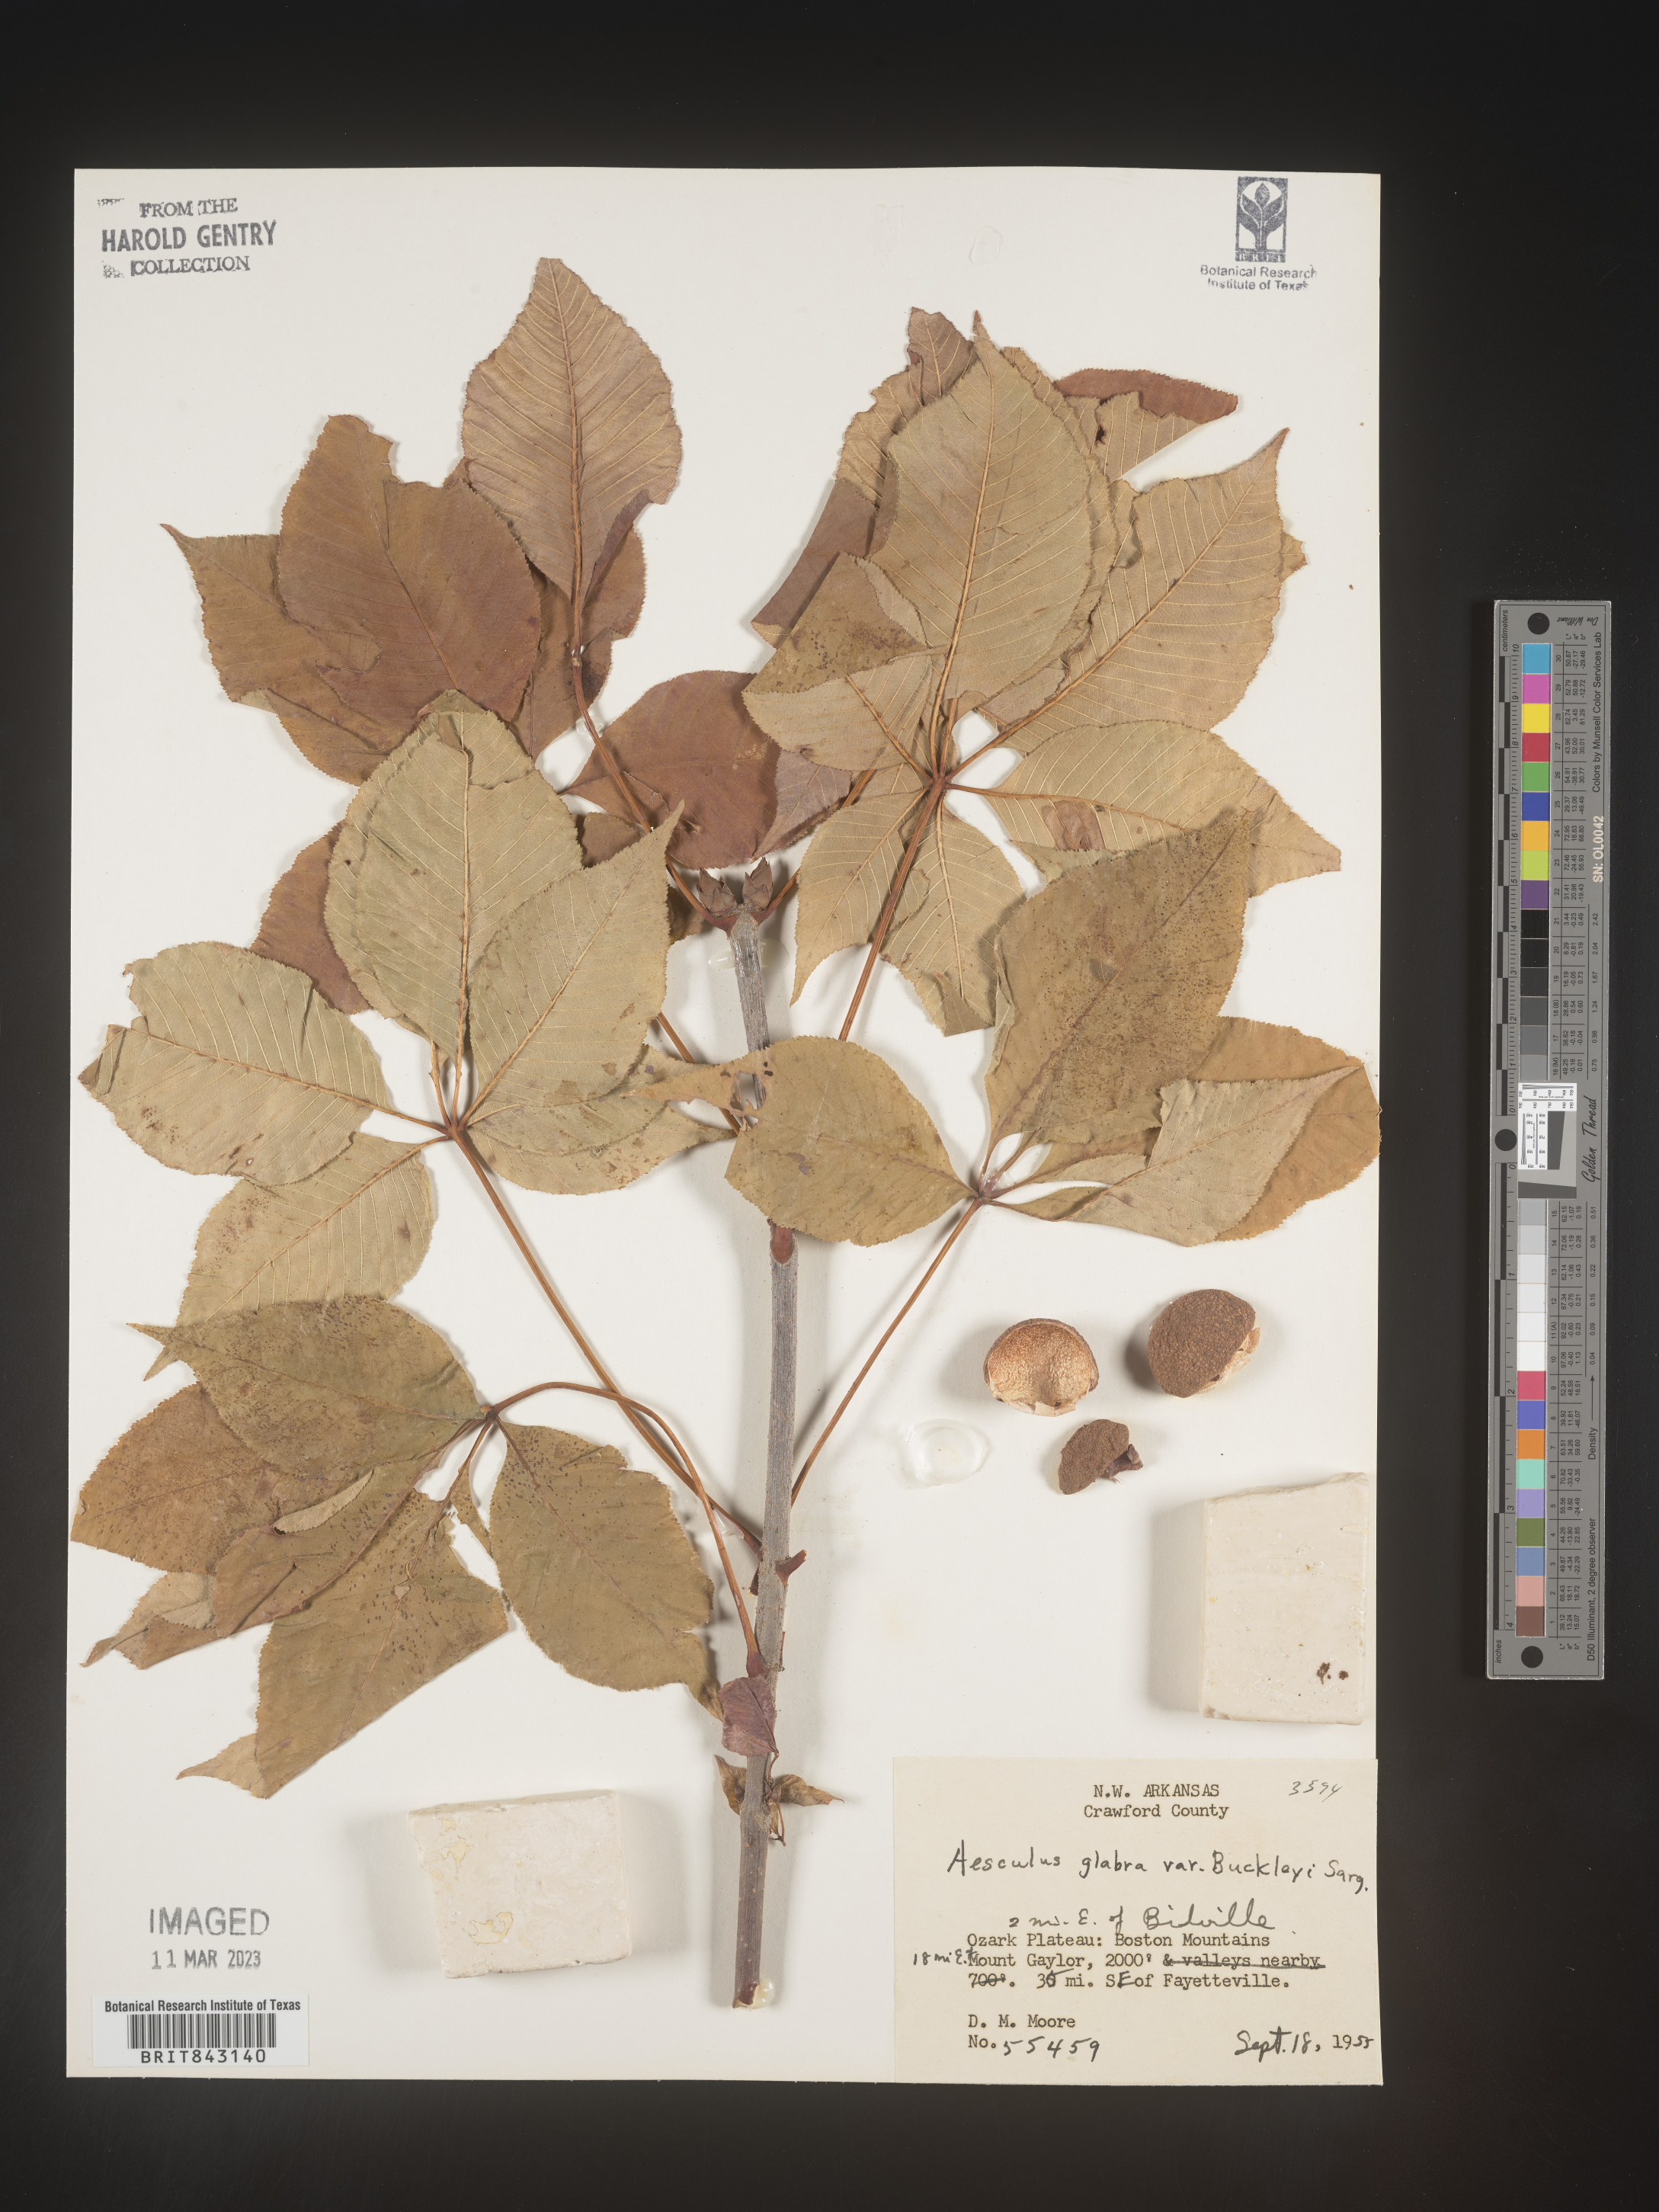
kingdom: Plantae
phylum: Tracheophyta
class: Magnoliopsida
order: Sapindales
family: Sapindaceae
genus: Aesculus
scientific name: Aesculus glabra
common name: Ohio buckeye
